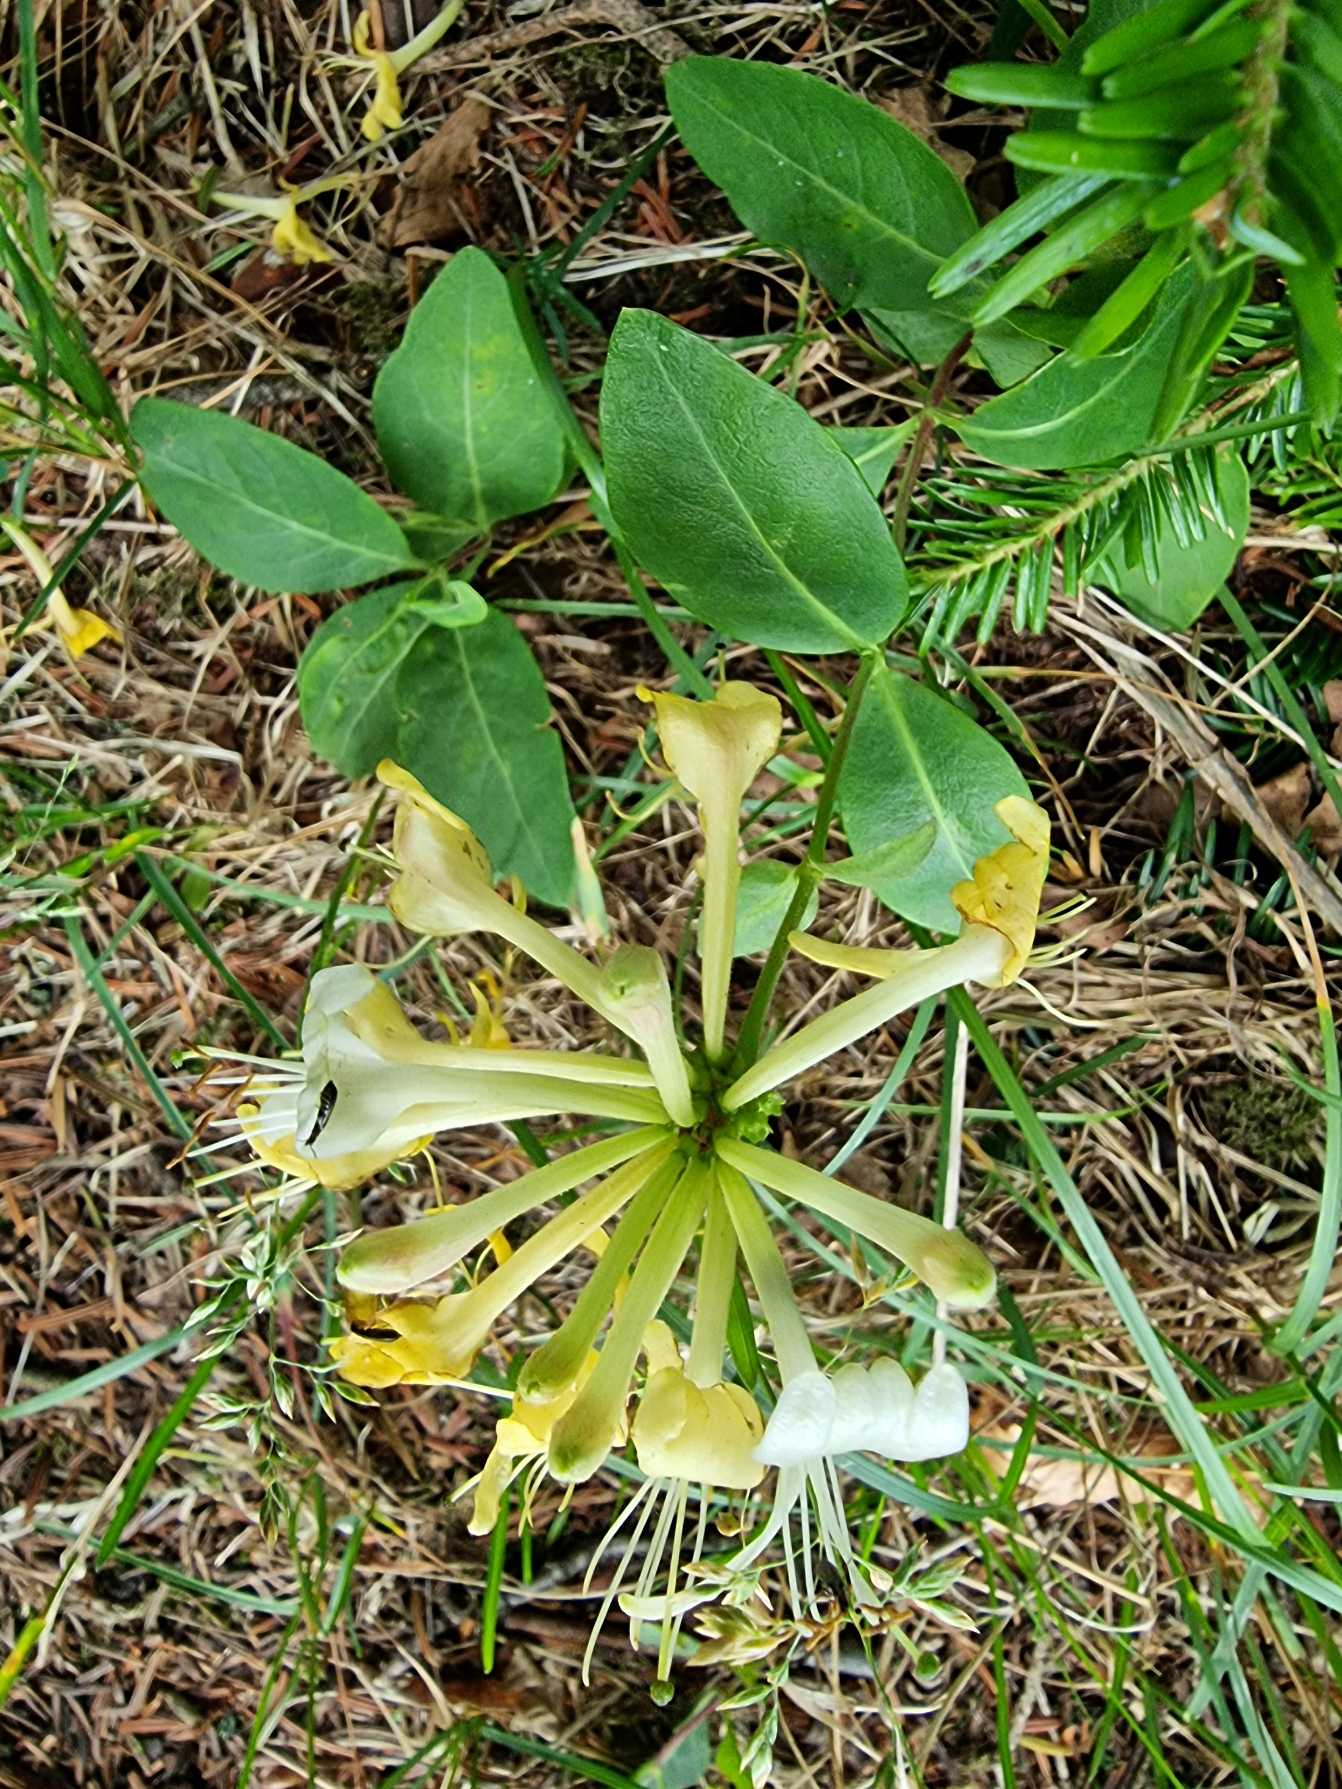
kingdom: Plantae
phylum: Tracheophyta
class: Magnoliopsida
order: Dipsacales
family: Caprifoliaceae
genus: Lonicera
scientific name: Lonicera periclymenum
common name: Almindelig gedeblad
